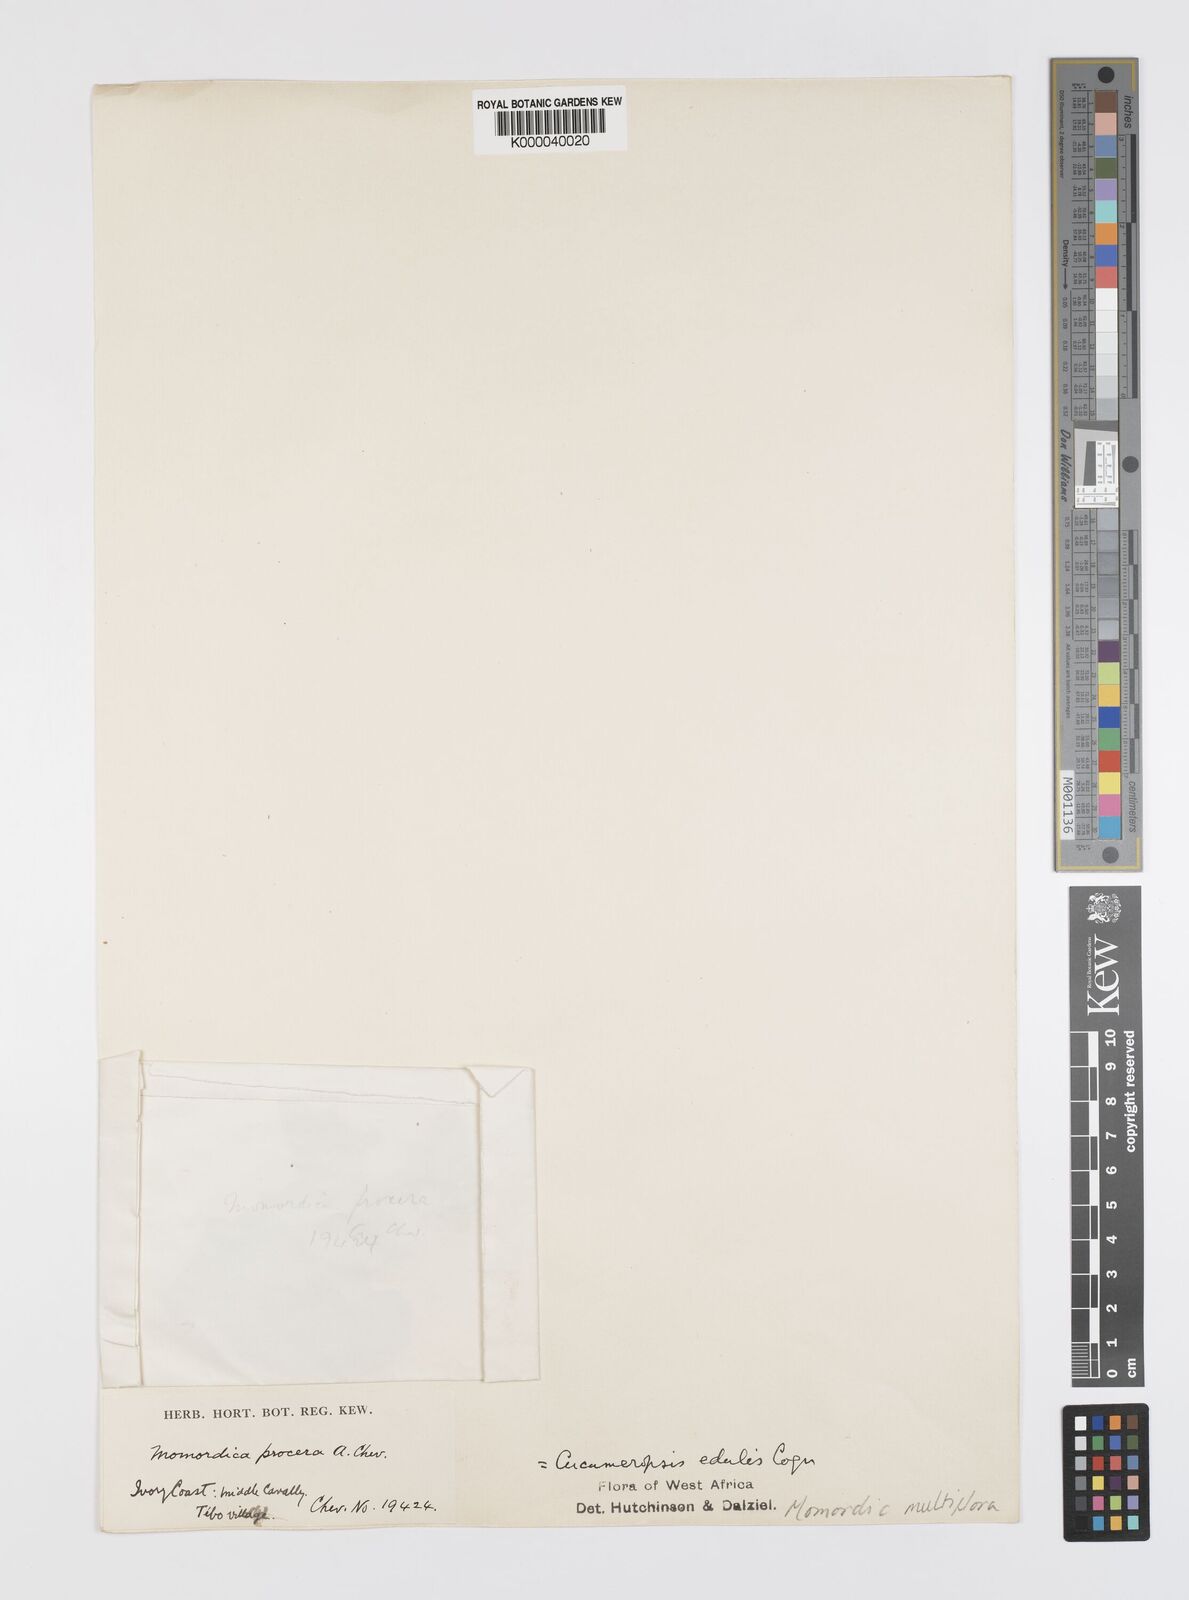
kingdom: Plantae
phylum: Tracheophyta
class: Magnoliopsida
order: Cucurbitales
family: Cucurbitaceae
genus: Momordica
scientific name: Momordica multiflora
